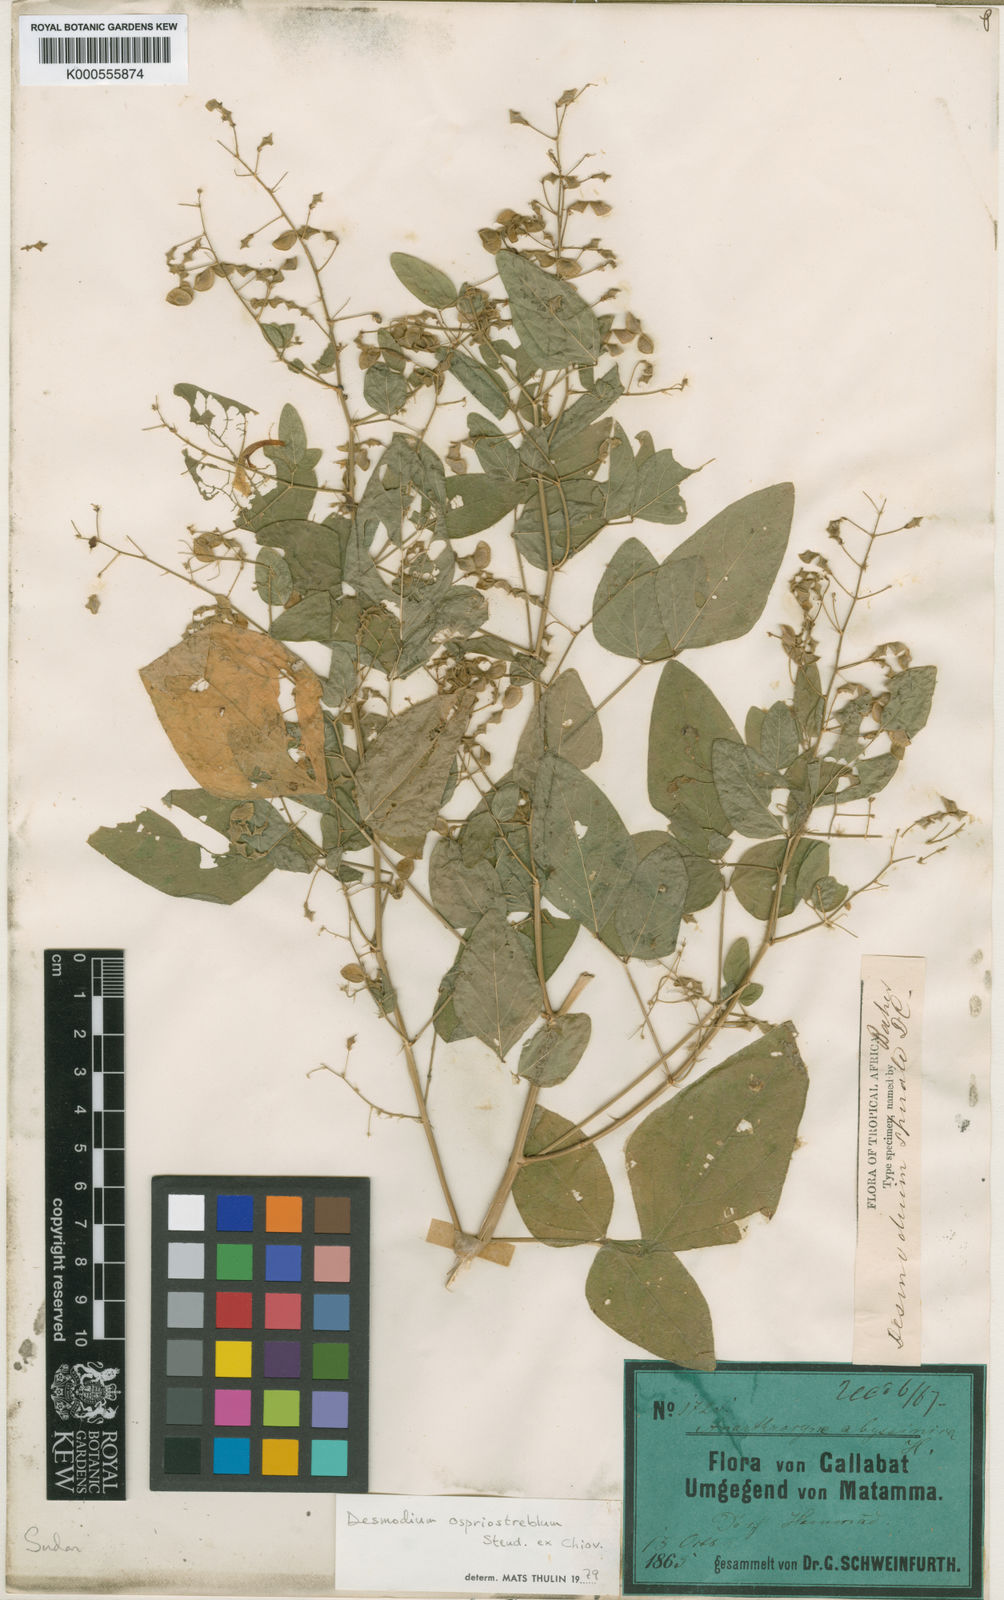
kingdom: Plantae
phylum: Tracheophyta
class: Magnoliopsida
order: Fabales
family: Fabaceae
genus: Desmodium
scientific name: Desmodium procumbens
